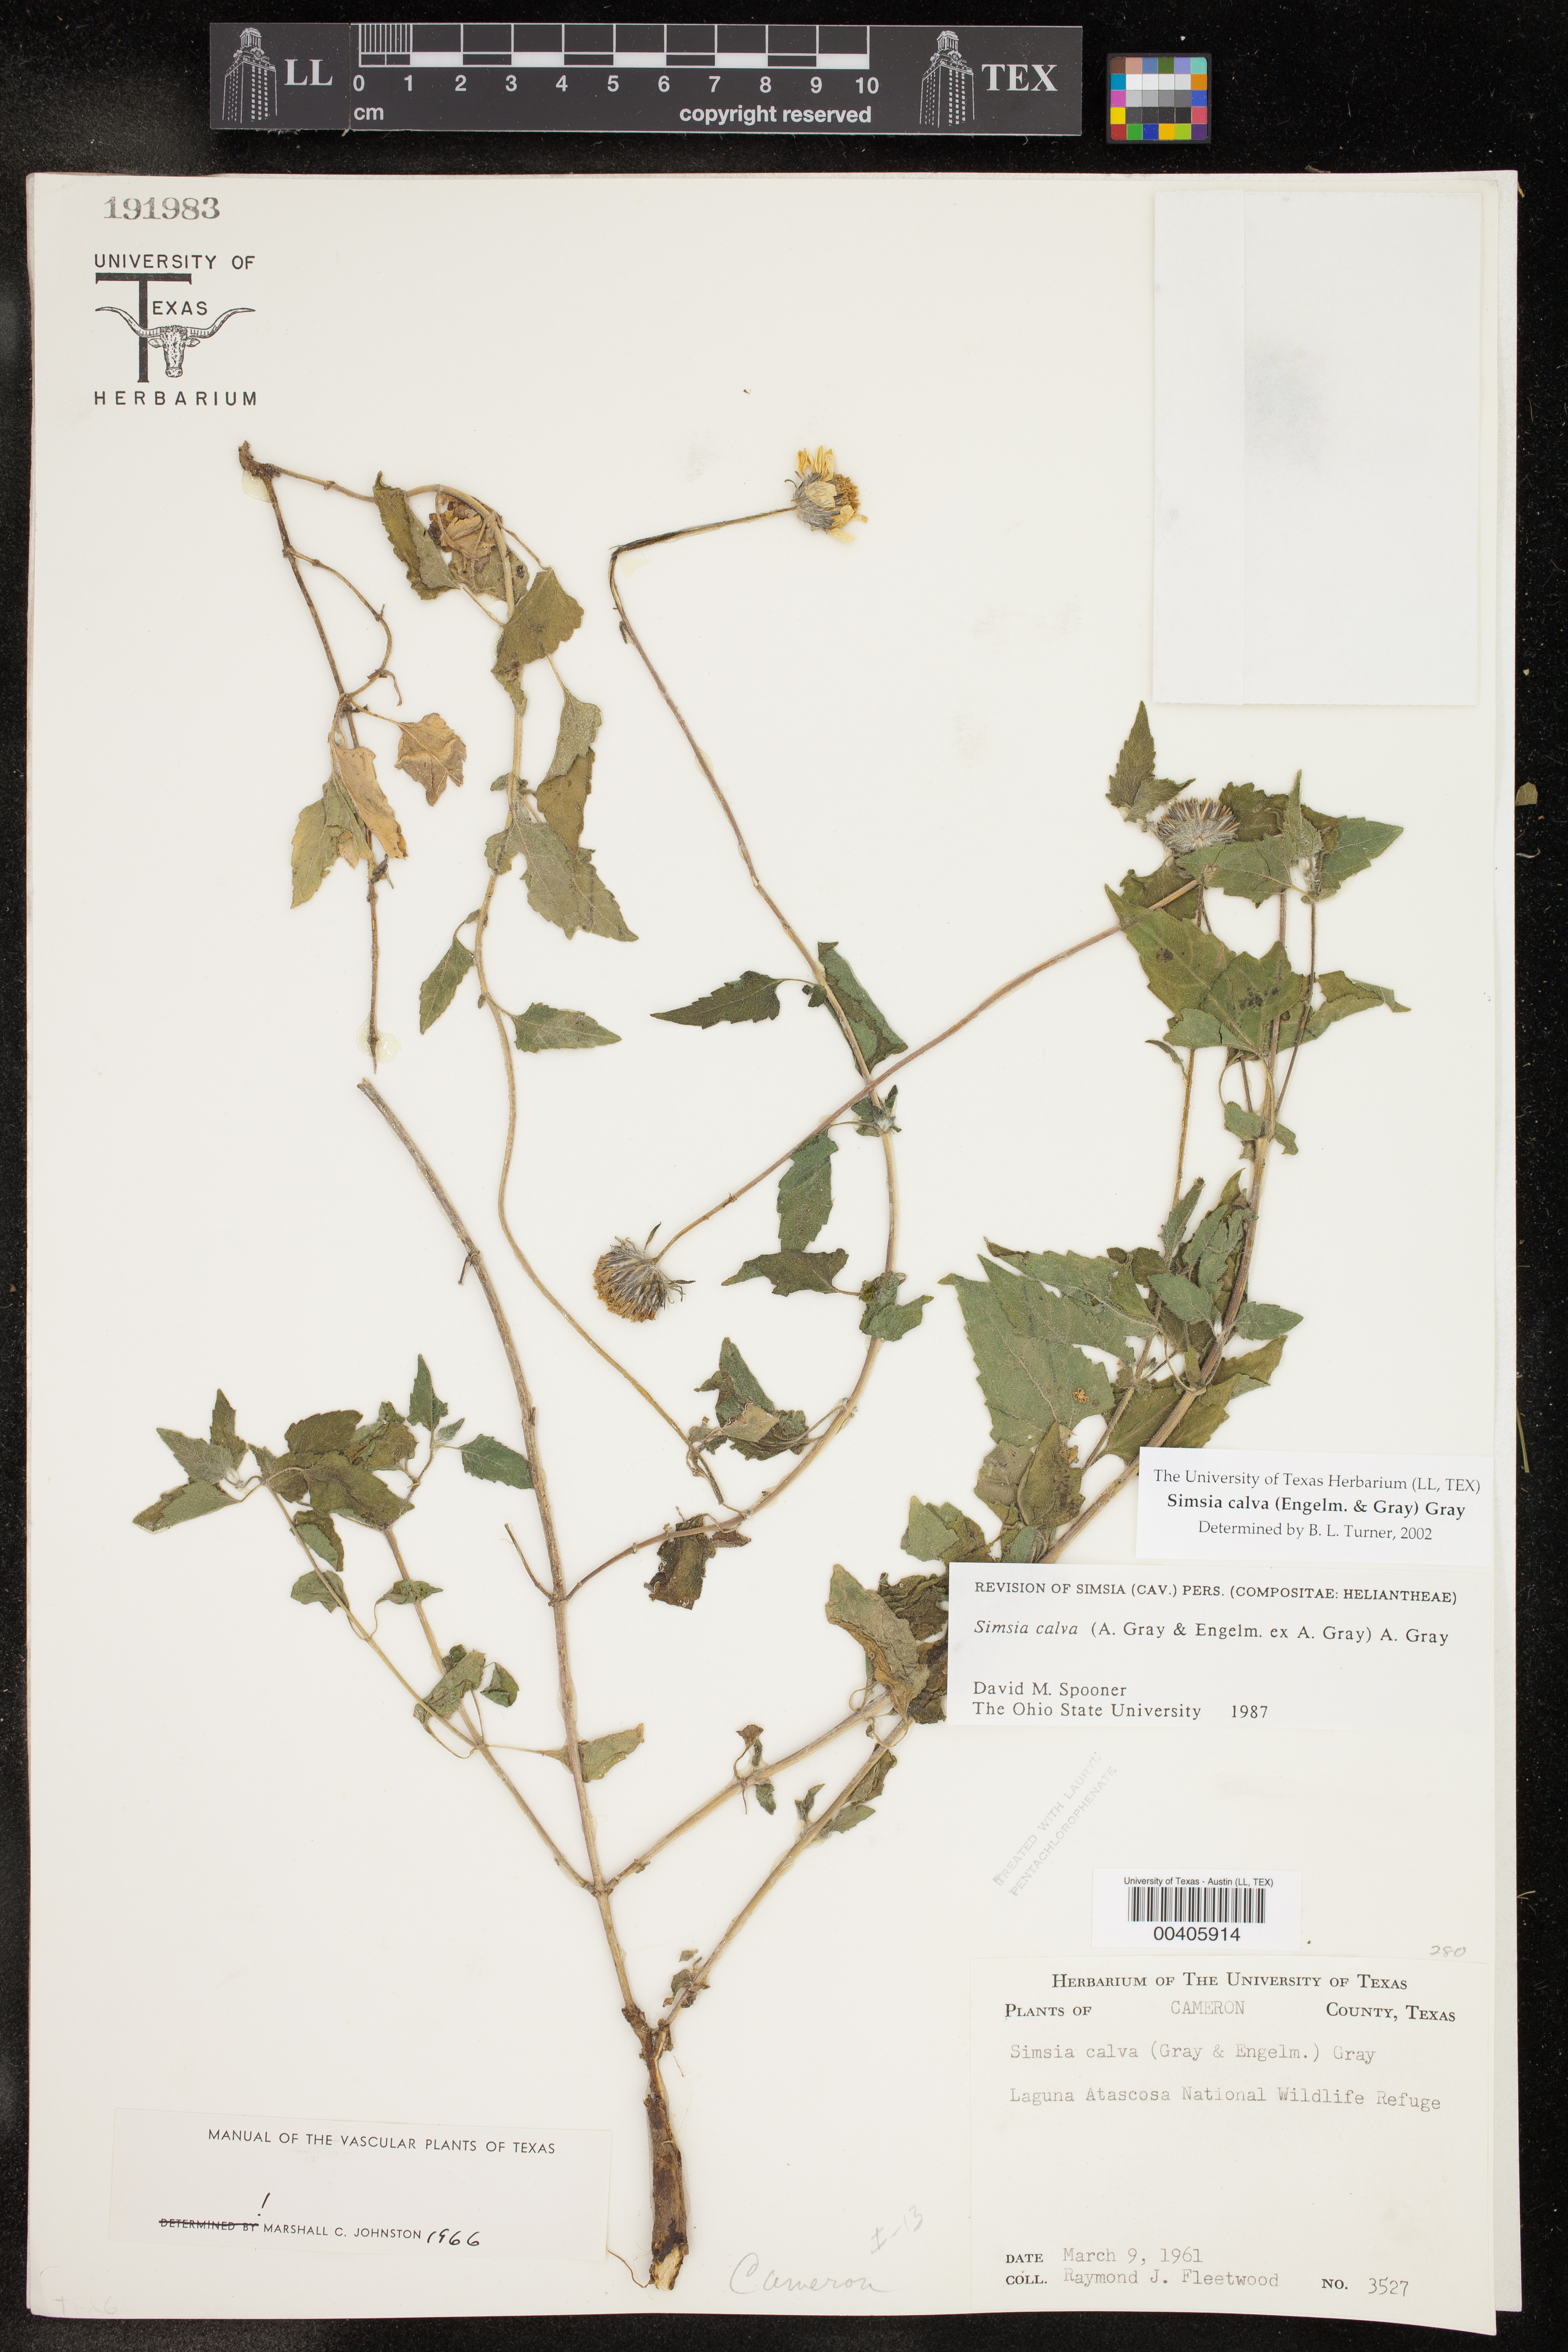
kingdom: Plantae
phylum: Tracheophyta
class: Magnoliopsida
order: Asterales
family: Asteraceae
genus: Simsia
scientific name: Simsia calva
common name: Awnless bush-sunflower
